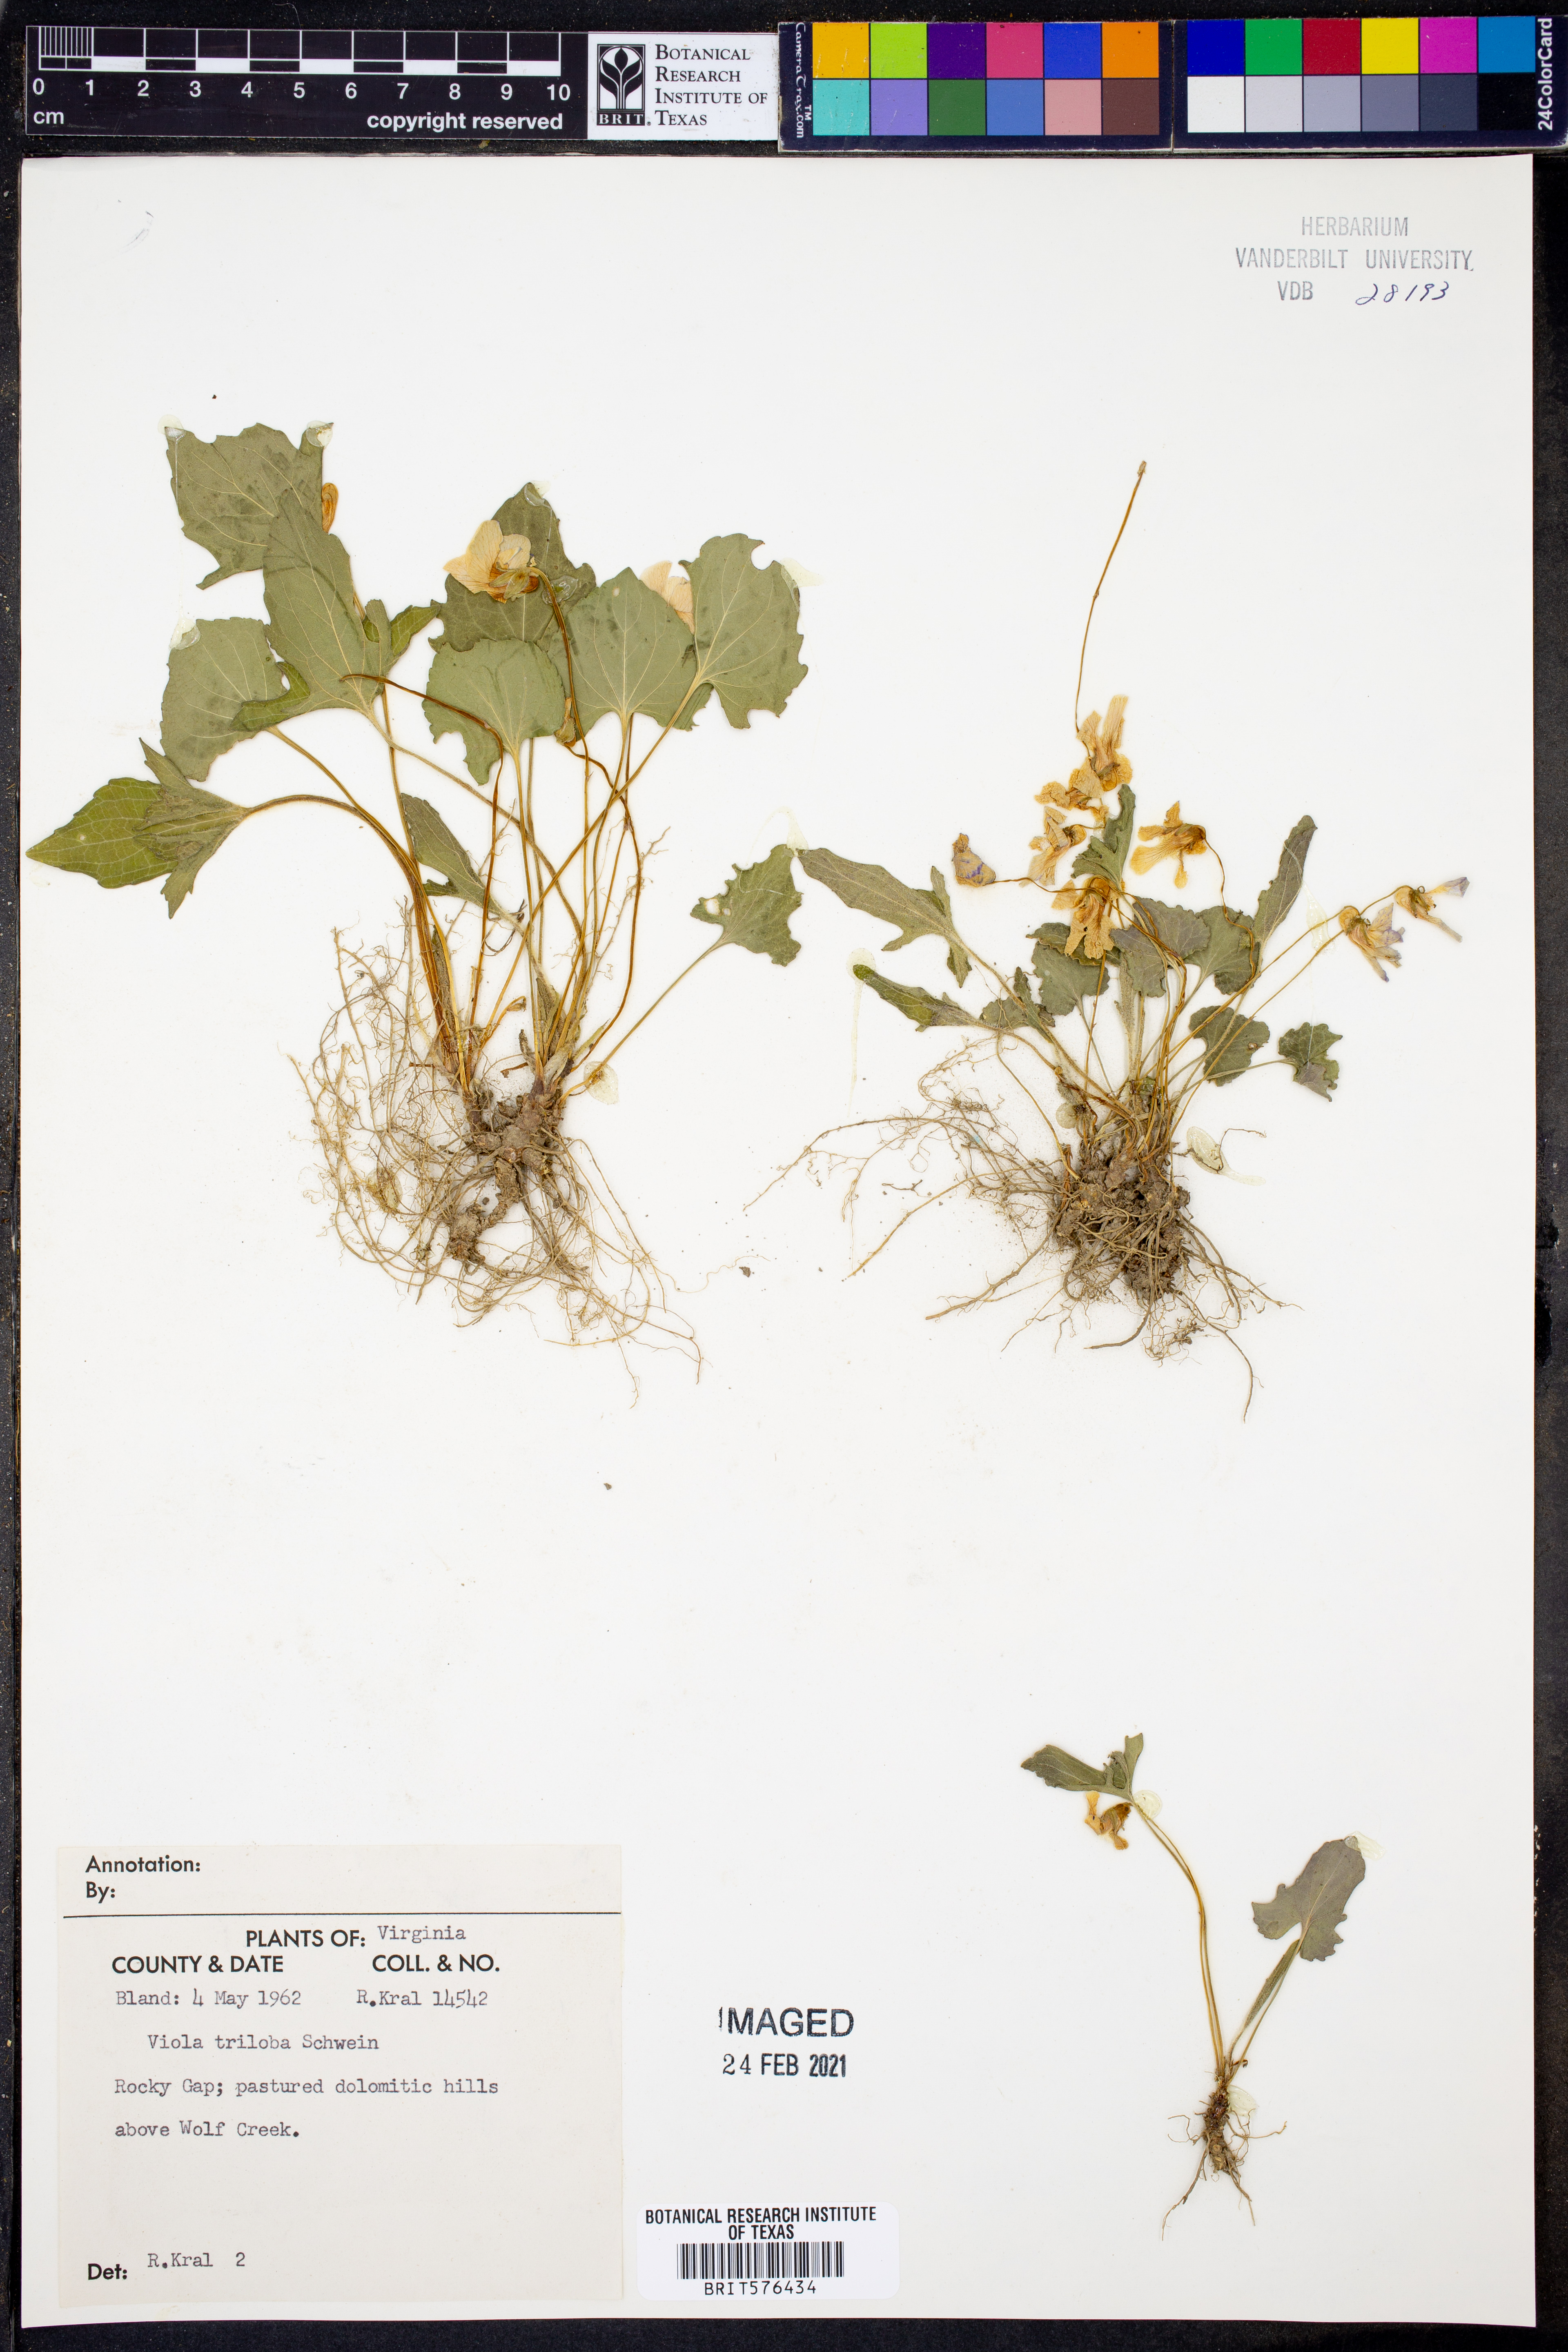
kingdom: Plantae
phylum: Tracheophyta
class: Magnoliopsida
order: Malpighiales
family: Violaceae
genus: Viola
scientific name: Viola palmata
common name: Early blue violet
